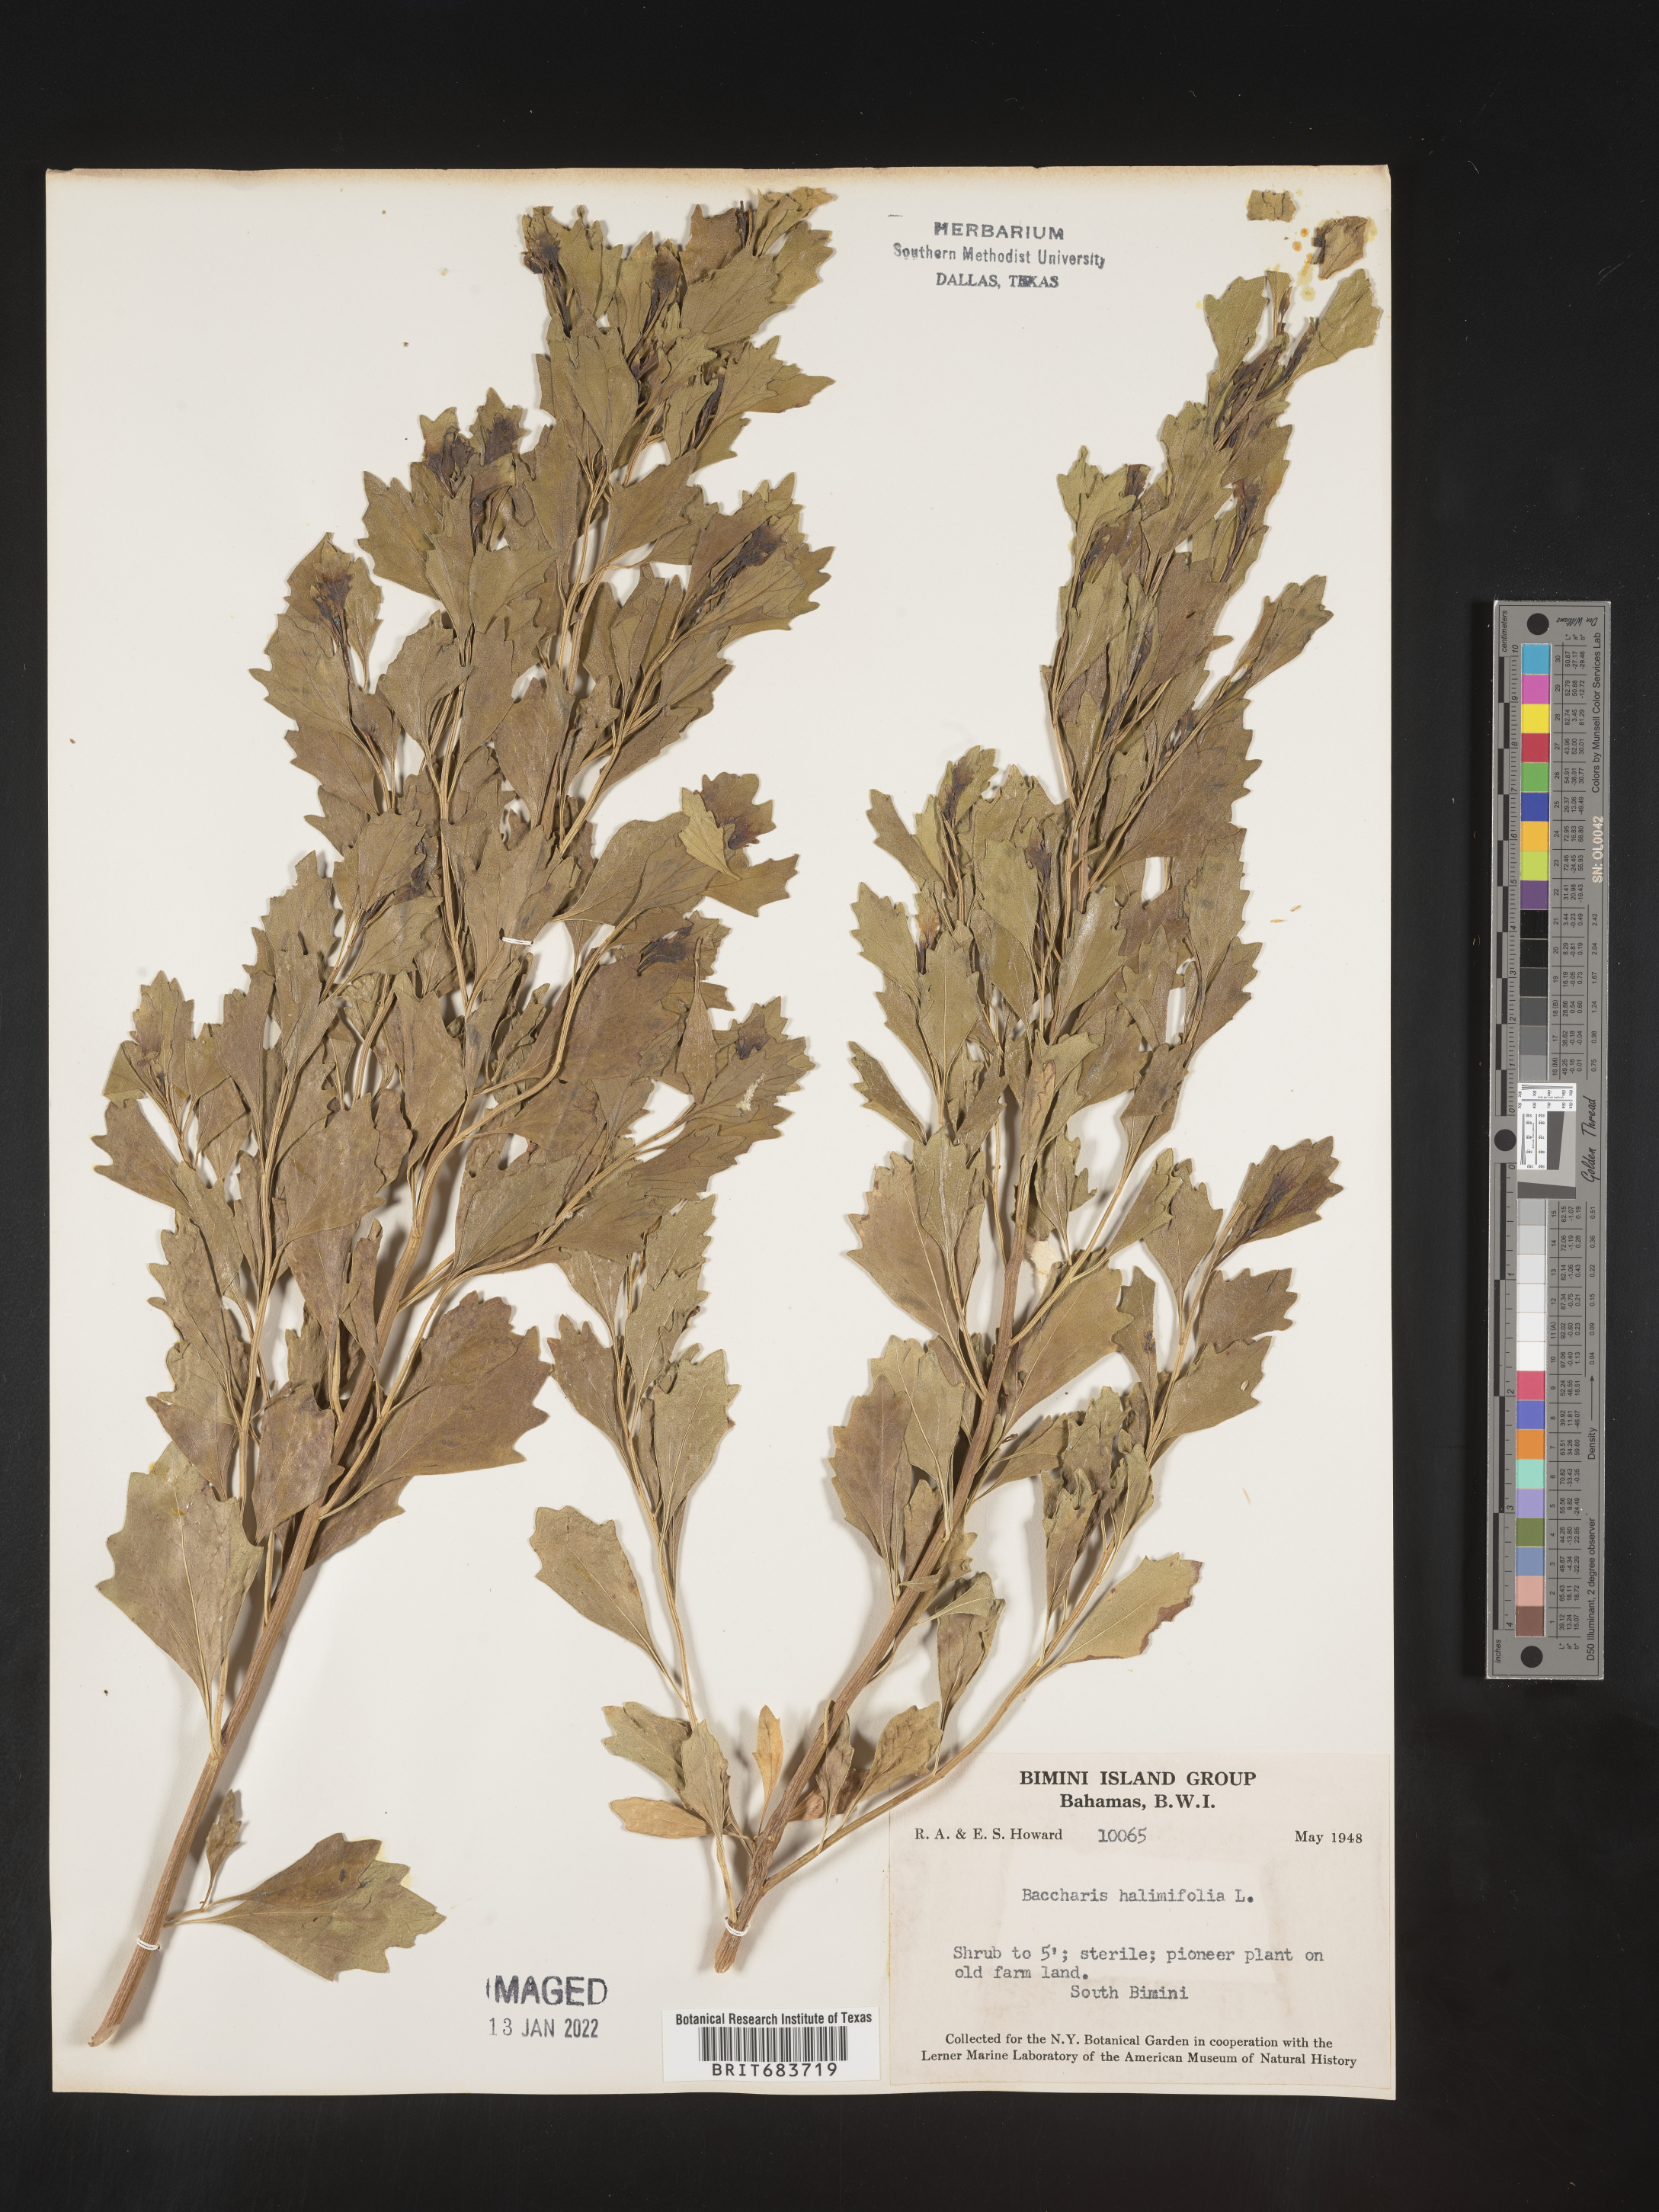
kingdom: Plantae
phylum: Tracheophyta
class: Magnoliopsida
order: Asterales
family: Asteraceae
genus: Baccharis
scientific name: Baccharis
